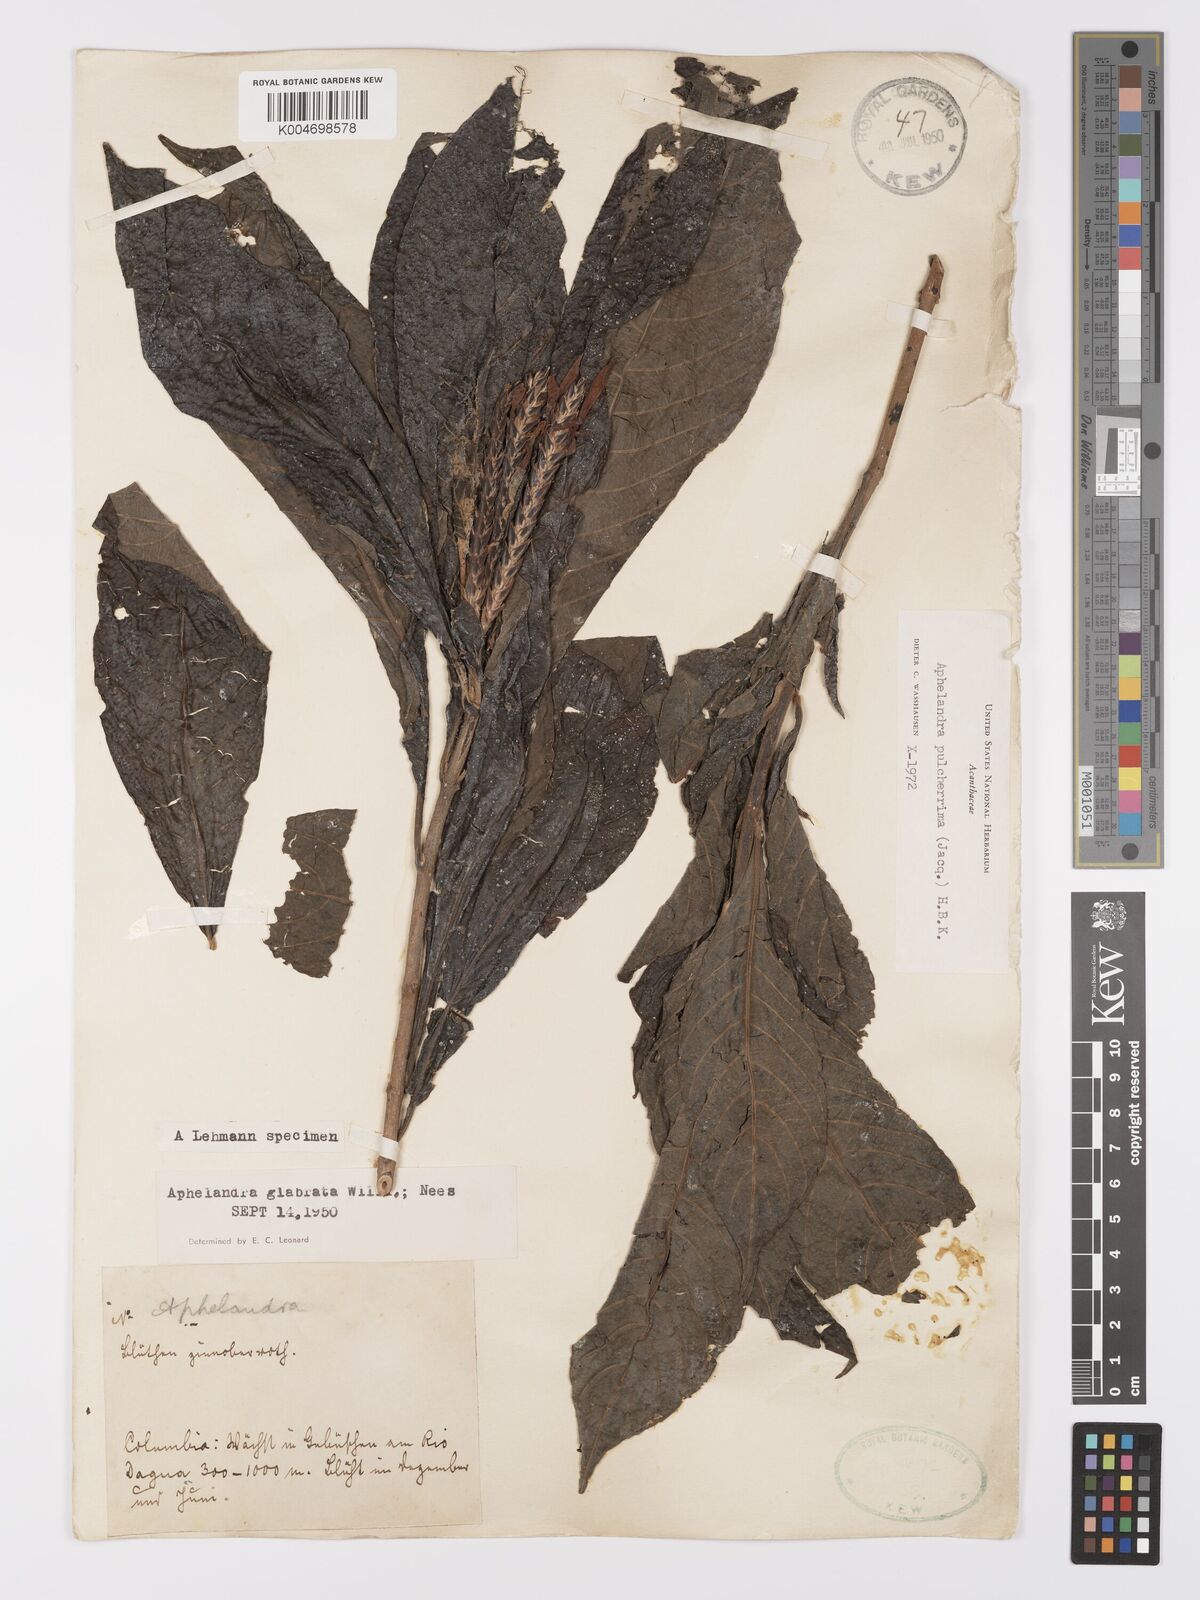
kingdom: Plantae
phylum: Tracheophyta
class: Magnoliopsida
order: Lamiales
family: Acanthaceae
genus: Aphelandra
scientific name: Aphelandra glabrata
